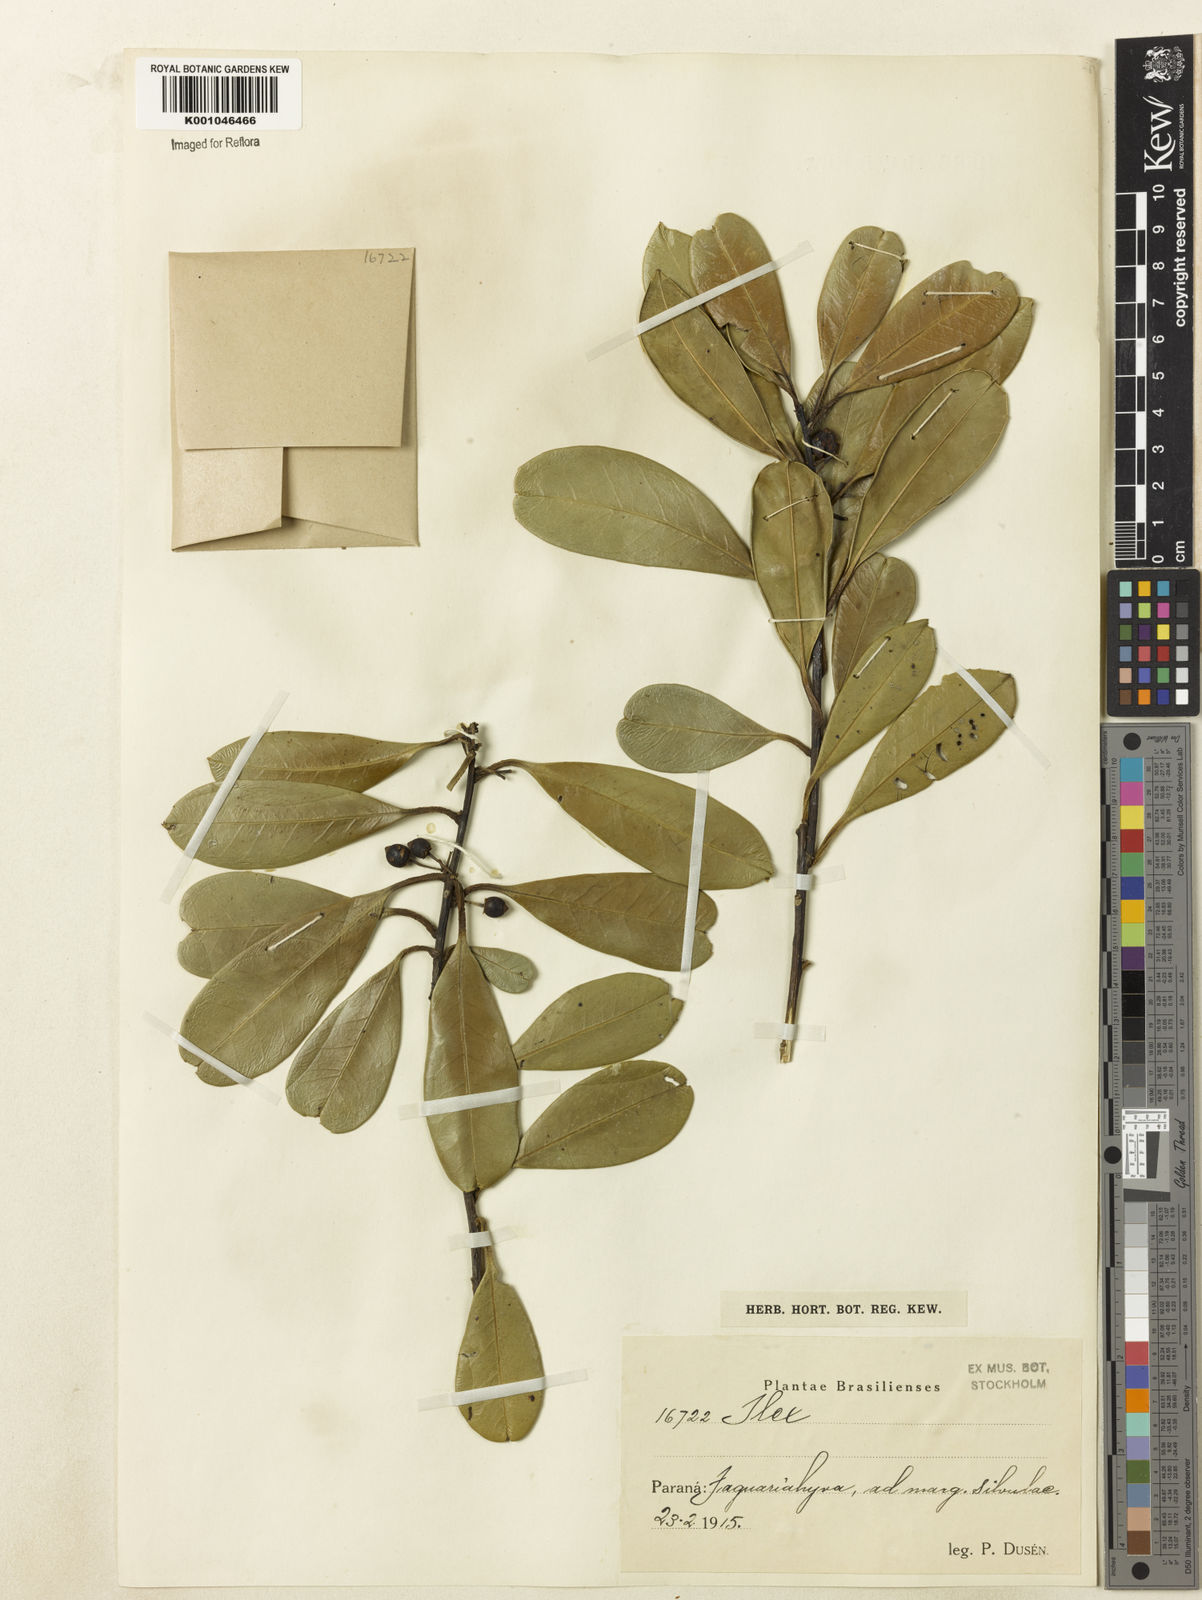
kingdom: Plantae
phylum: Tracheophyta
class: Magnoliopsida
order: Aquifoliales
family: Aquifoliaceae
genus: Ilex
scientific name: Ilex paraguariensis
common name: Paraguay tea
